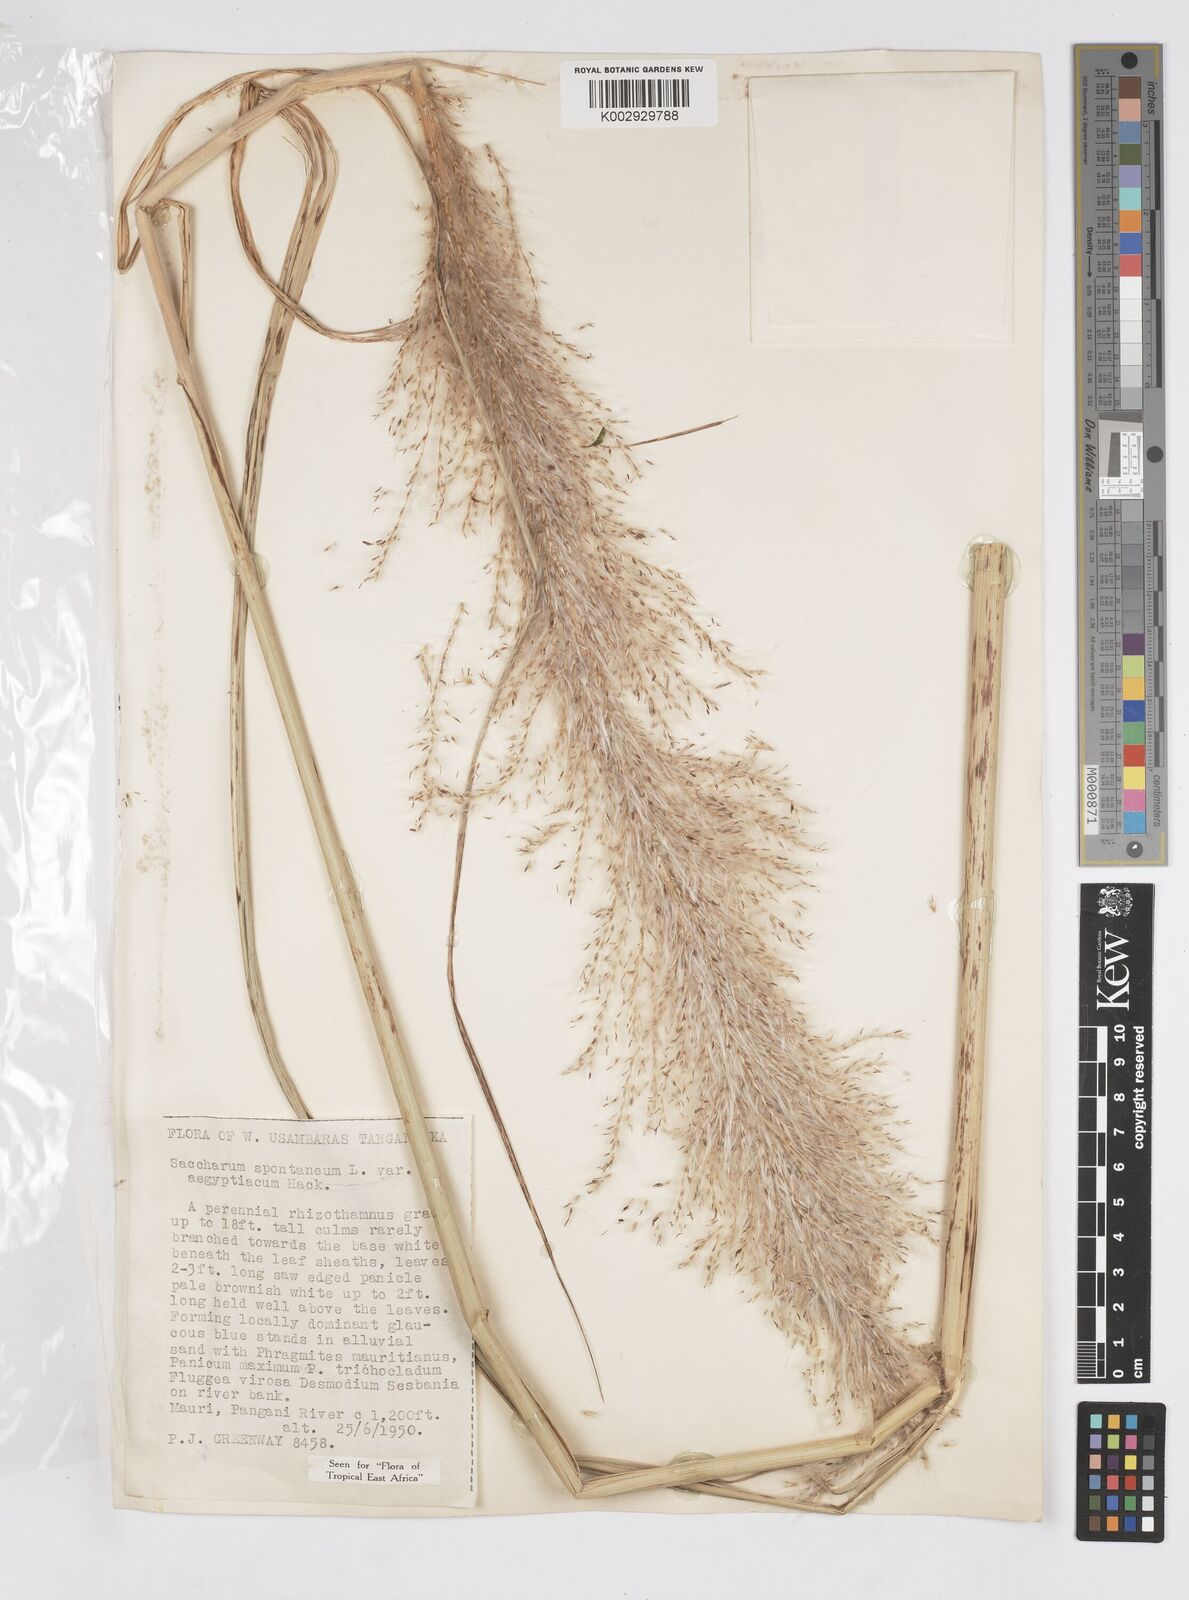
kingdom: Plantae
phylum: Tracheophyta
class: Liliopsida
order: Poales
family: Poaceae
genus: Saccharum
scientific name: Saccharum spontaneum
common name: Wild sugarcane
